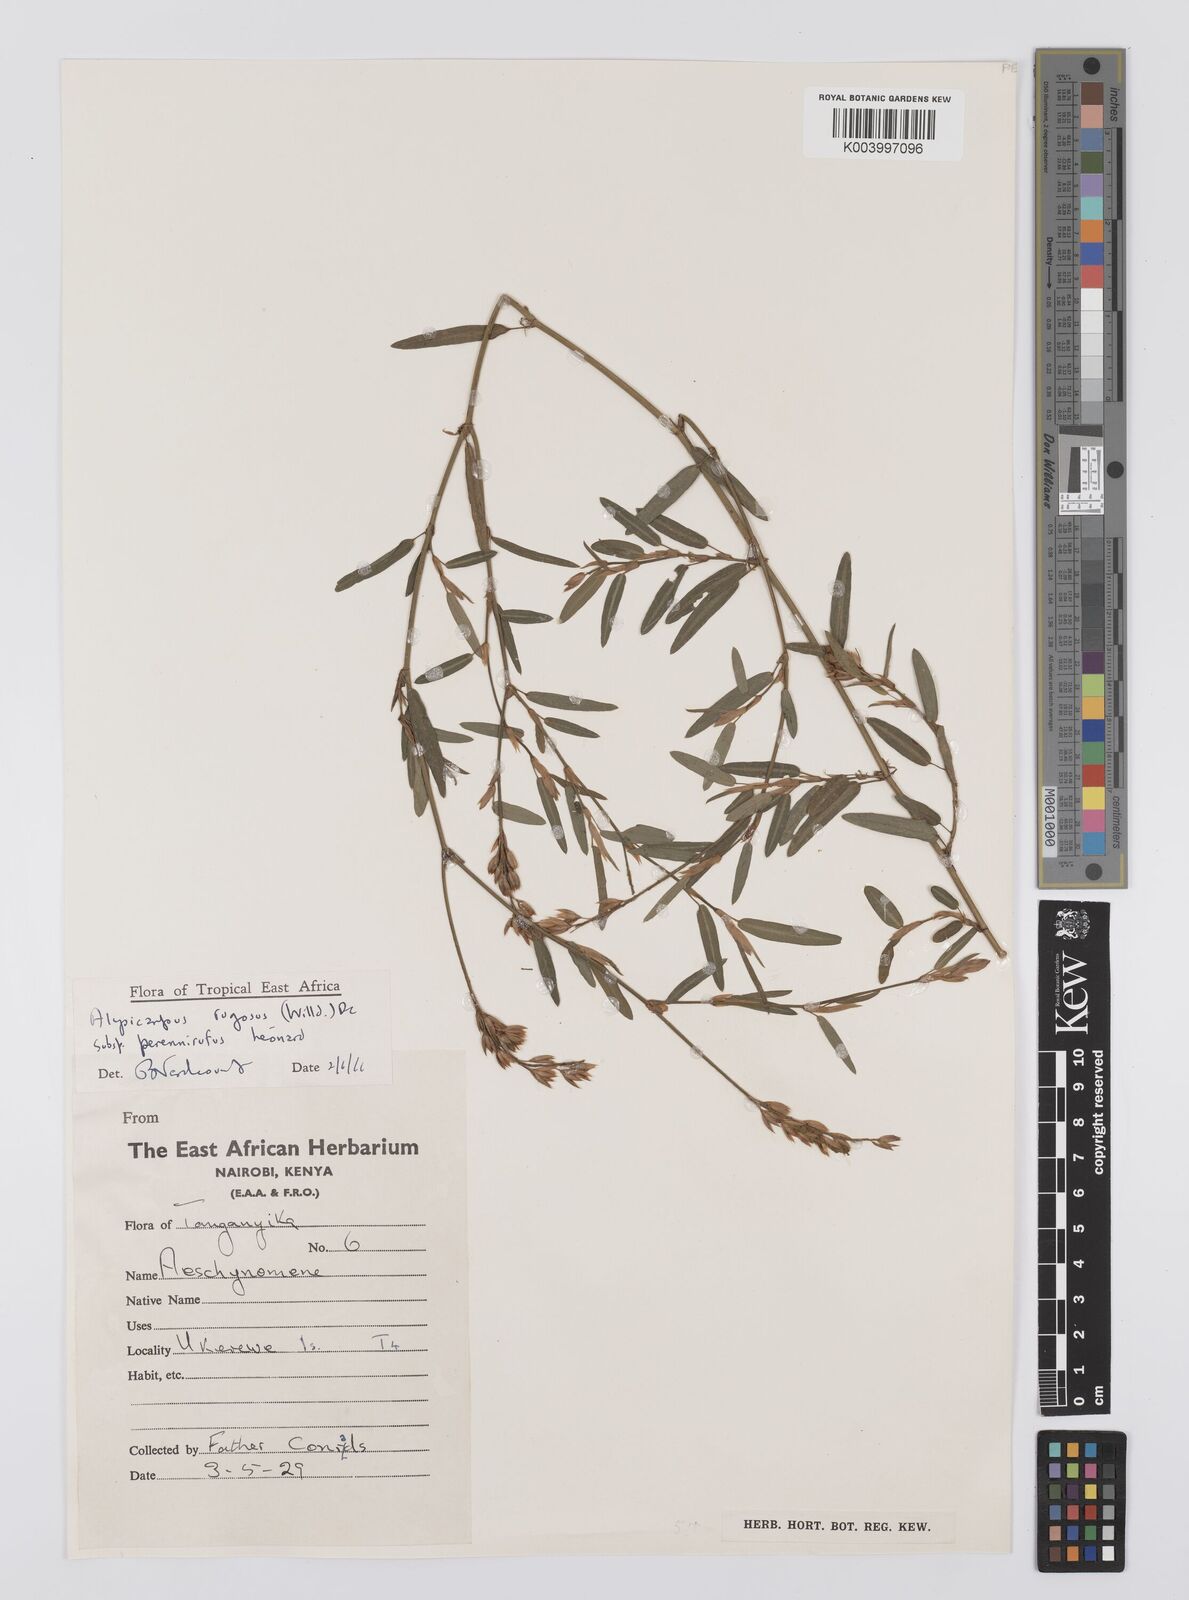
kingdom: Plantae
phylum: Tracheophyta
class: Magnoliopsida
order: Fabales
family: Fabaceae
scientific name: Fabaceae
